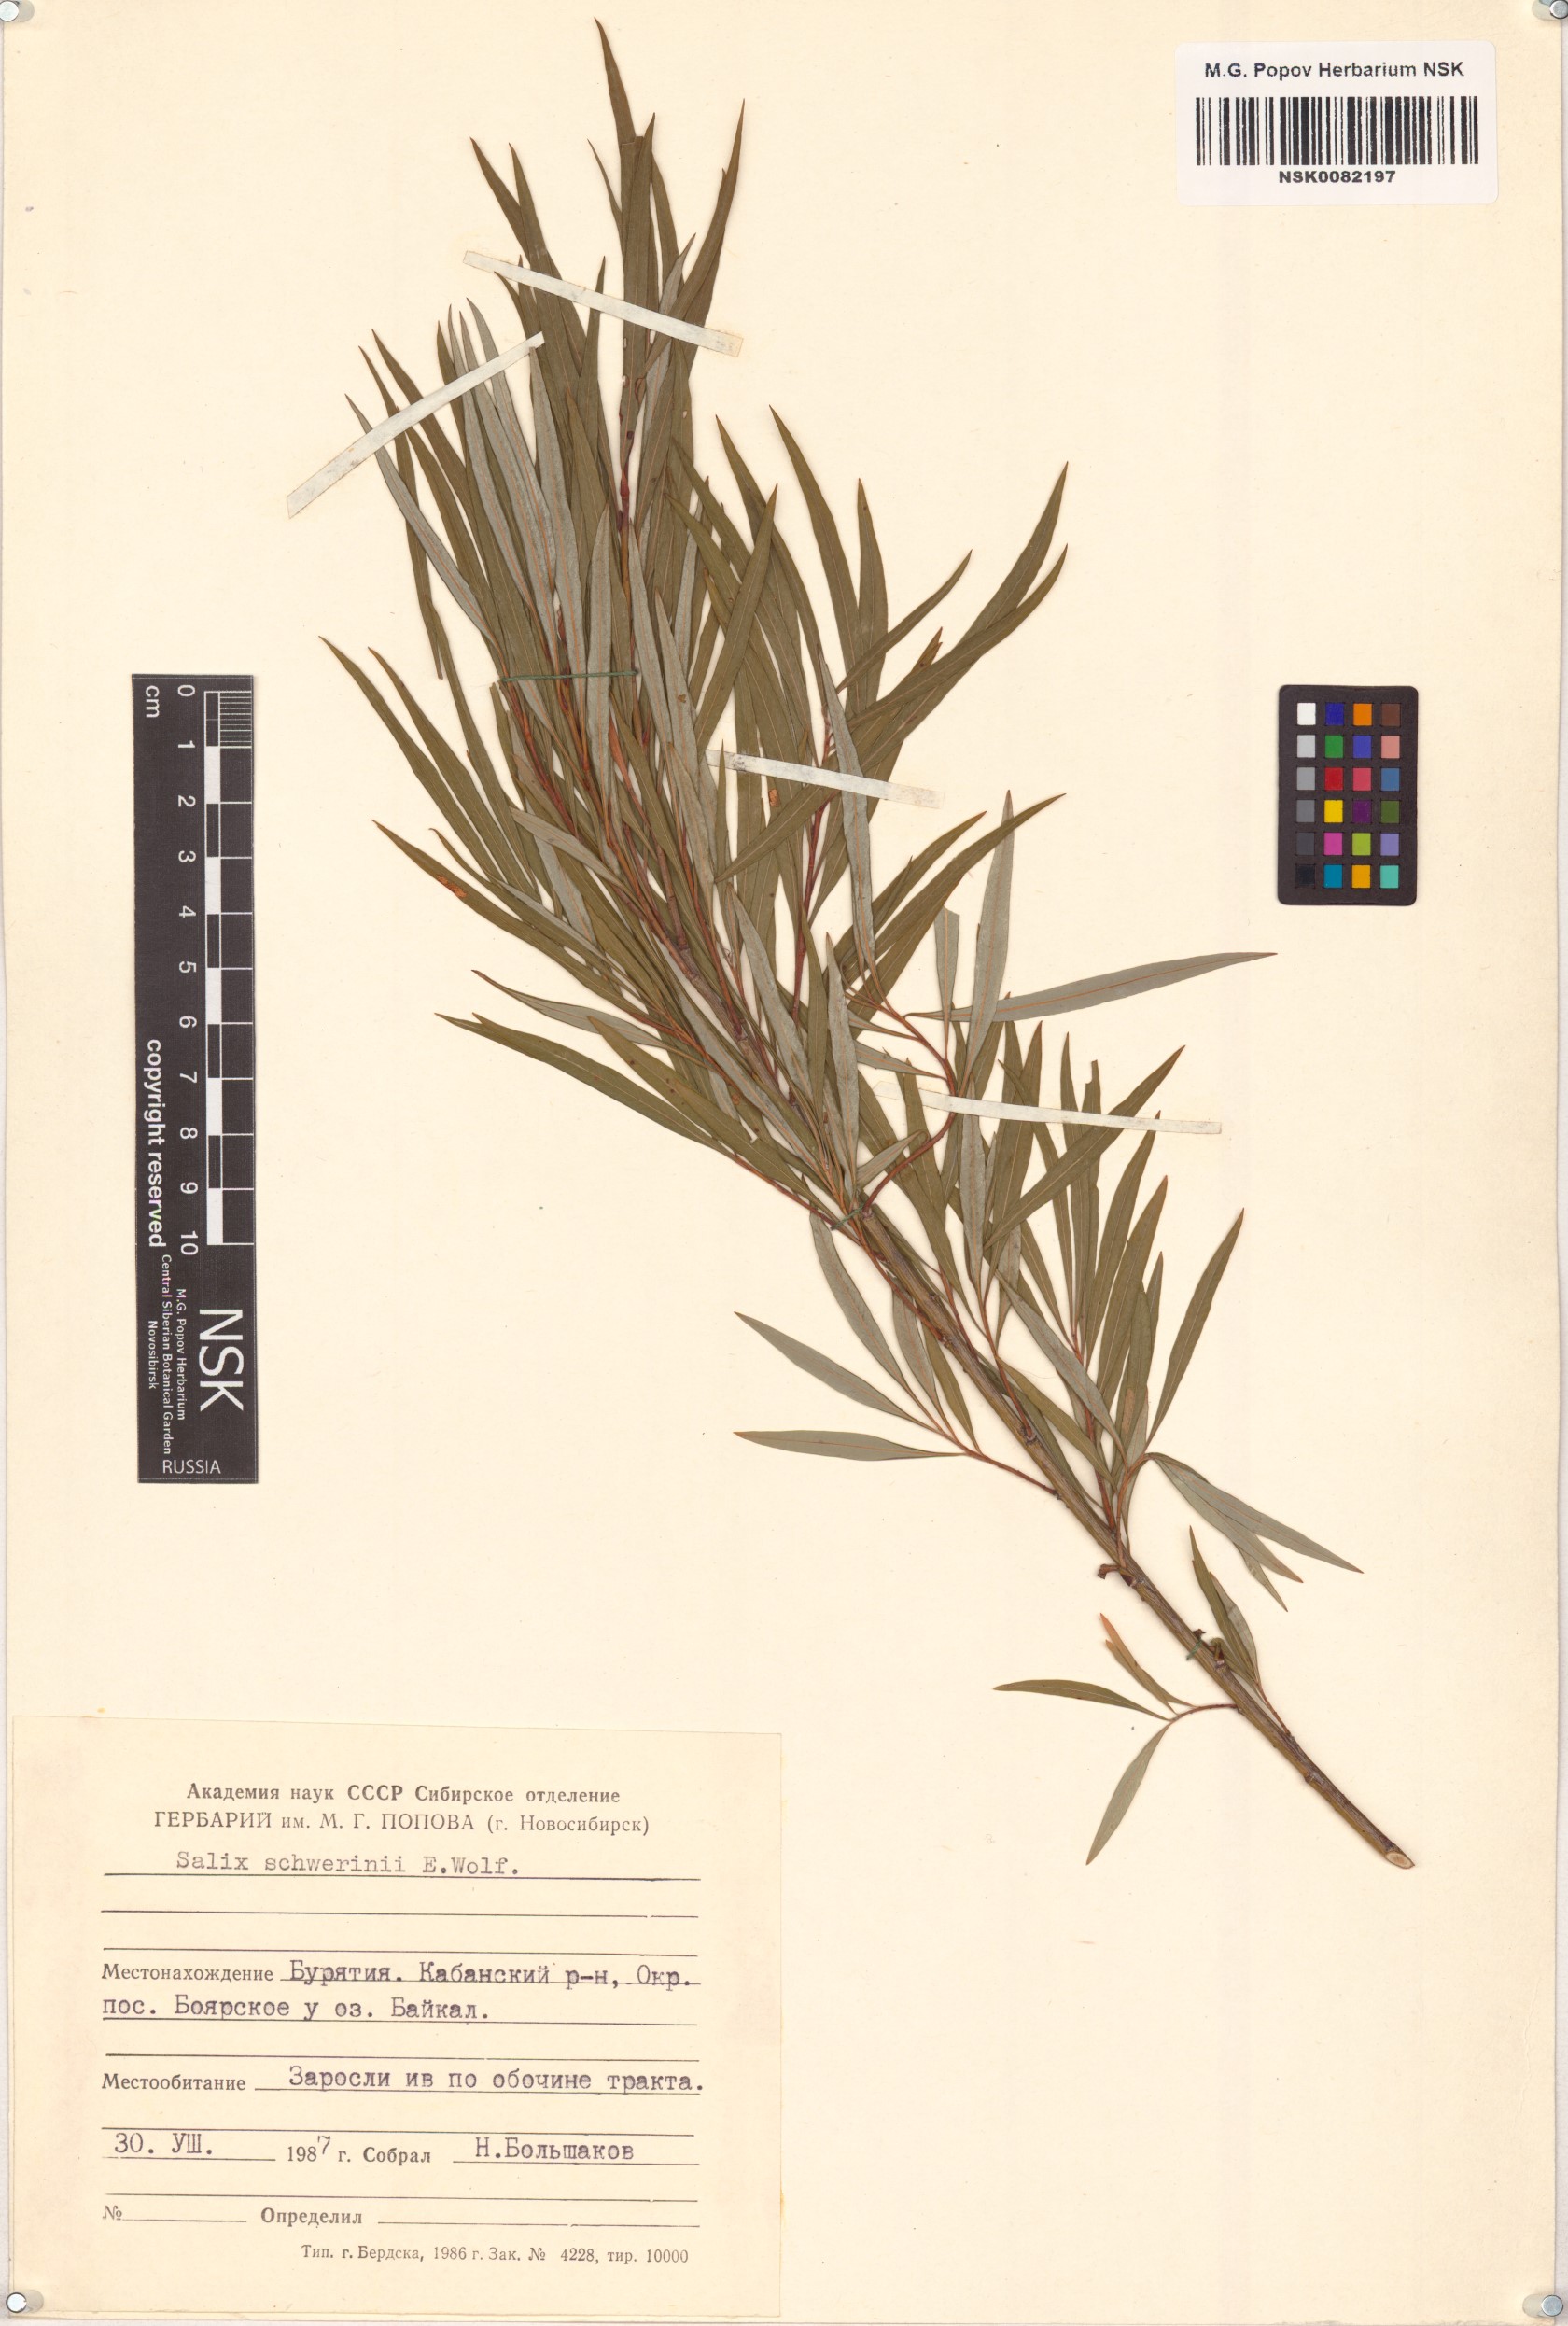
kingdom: Plantae
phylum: Tracheophyta
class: Magnoliopsida
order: Malpighiales
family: Salicaceae
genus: Salix
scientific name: Salix schwerinii
